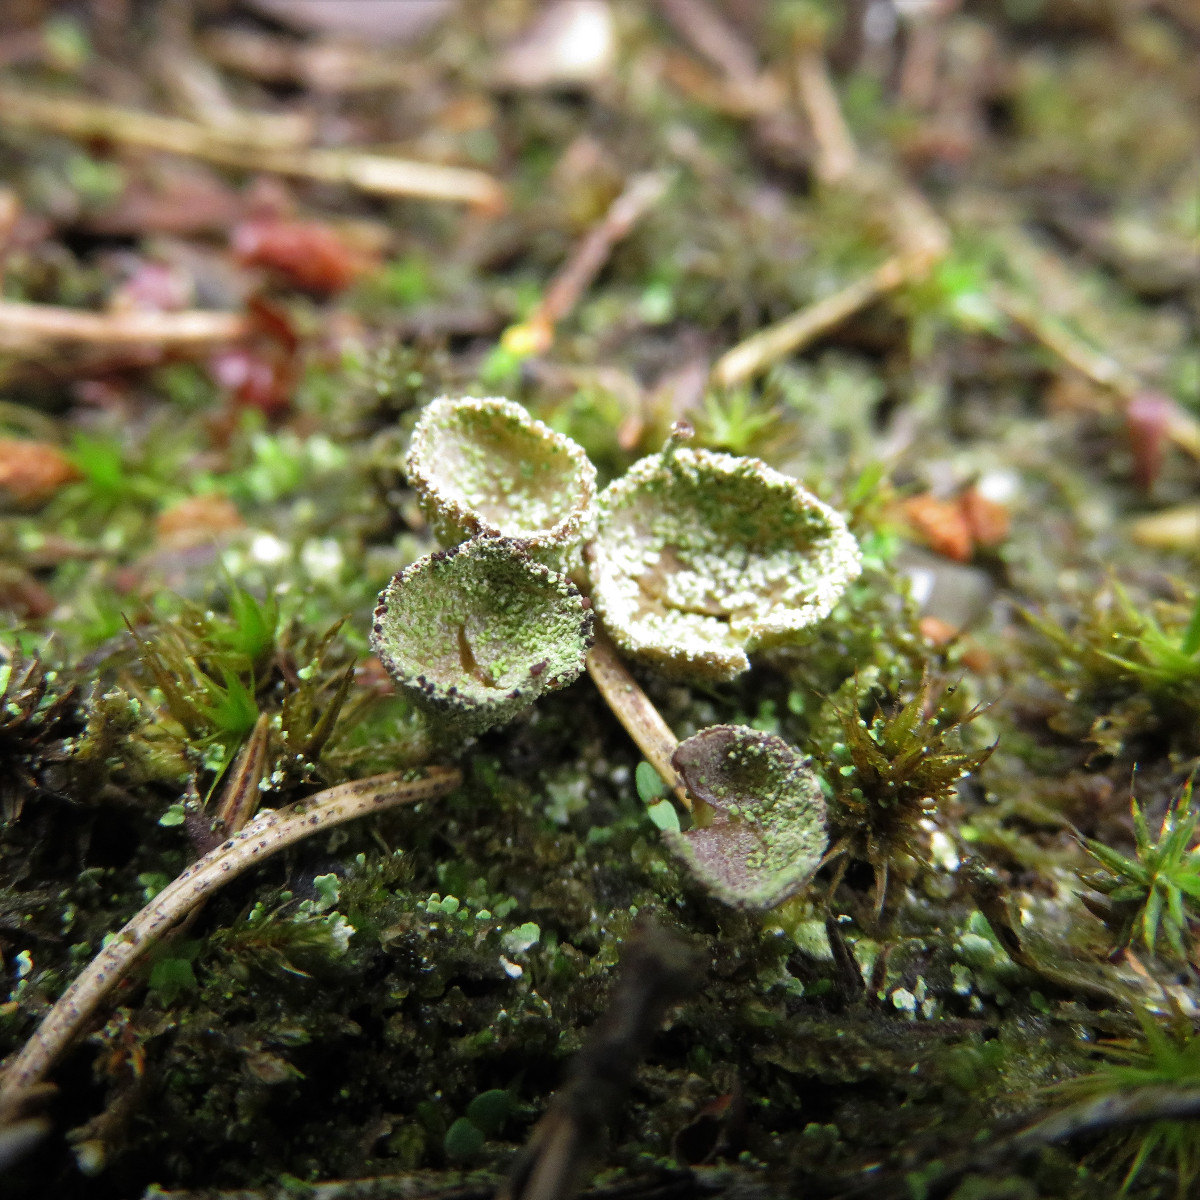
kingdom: Fungi
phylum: Ascomycota
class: Lecanoromycetes
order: Lecanorales
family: Cladoniaceae
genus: Cladonia
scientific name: Cladonia pyxidata
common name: tragt-bægerlav
